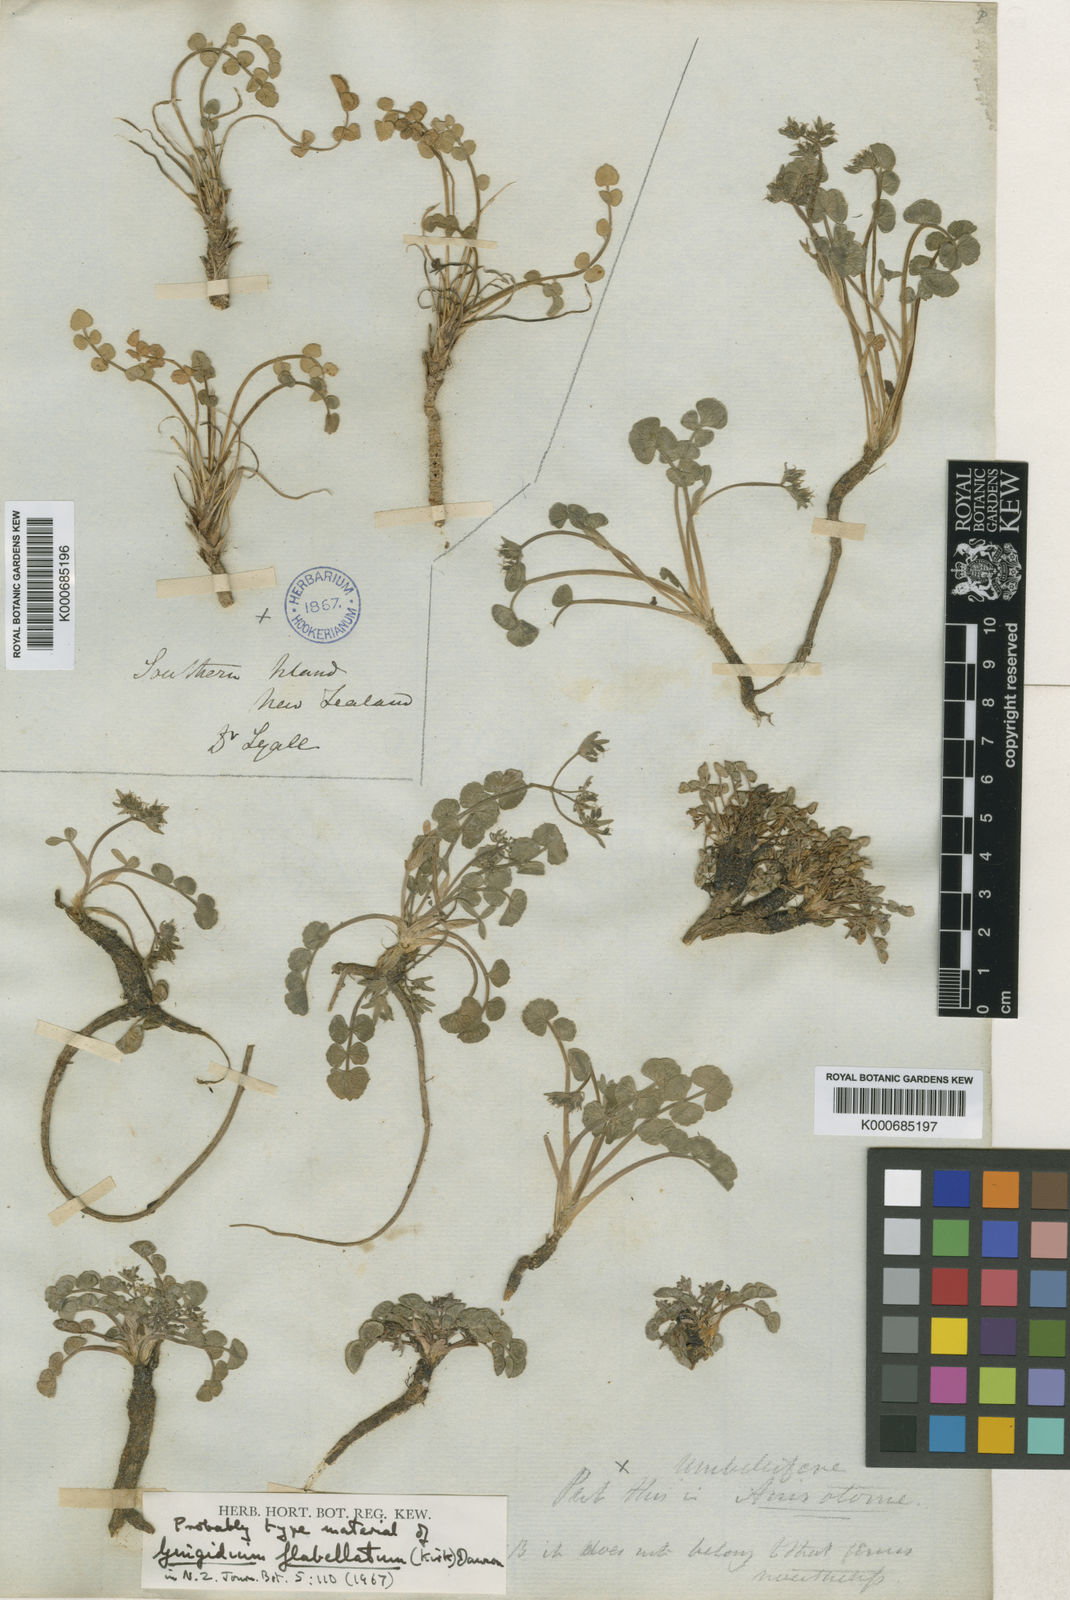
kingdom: Plantae
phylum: Tracheophyta
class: Magnoliopsida
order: Apiales
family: Apiaceae
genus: Gingidia
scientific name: Gingidia
